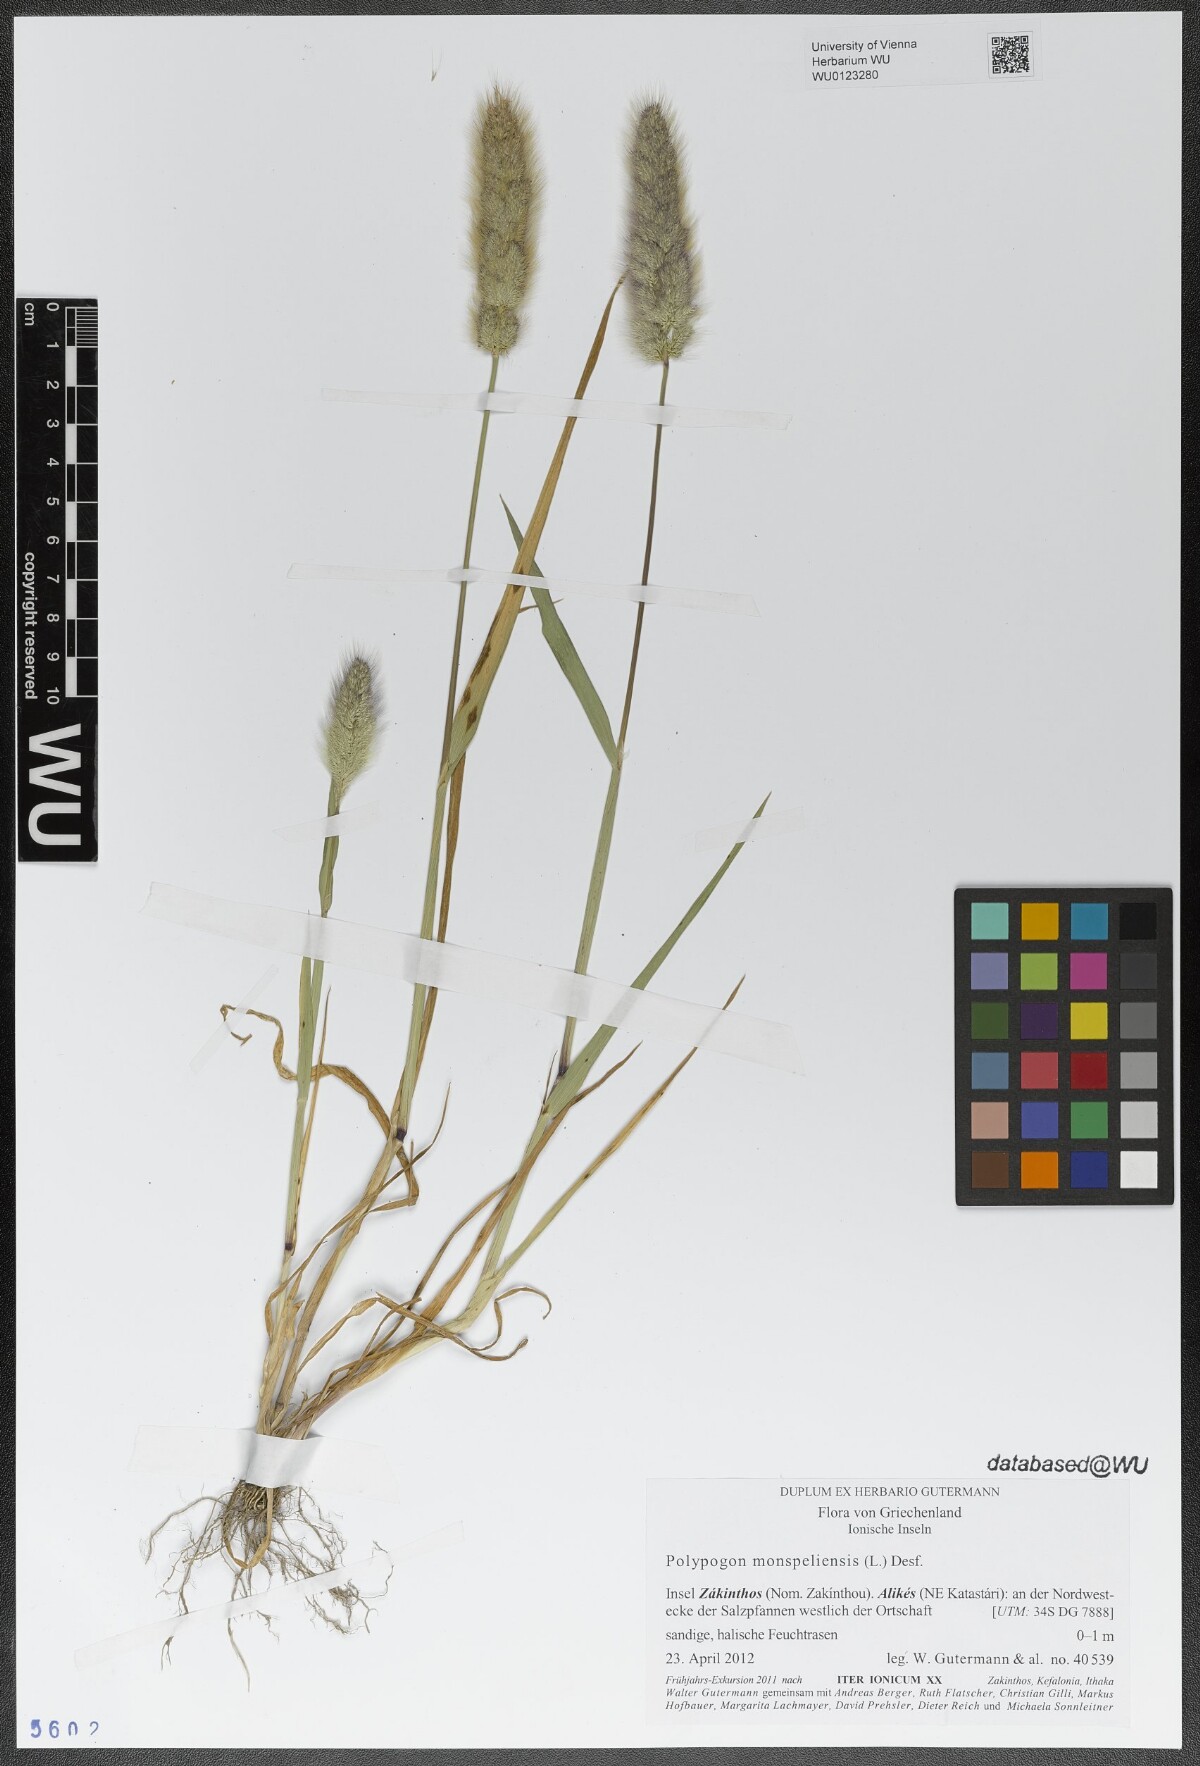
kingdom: Plantae
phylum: Tracheophyta
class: Liliopsida
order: Poales
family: Poaceae
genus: Polypogon
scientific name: Polypogon monspeliensis
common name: Annual rabbitsfoot grass
